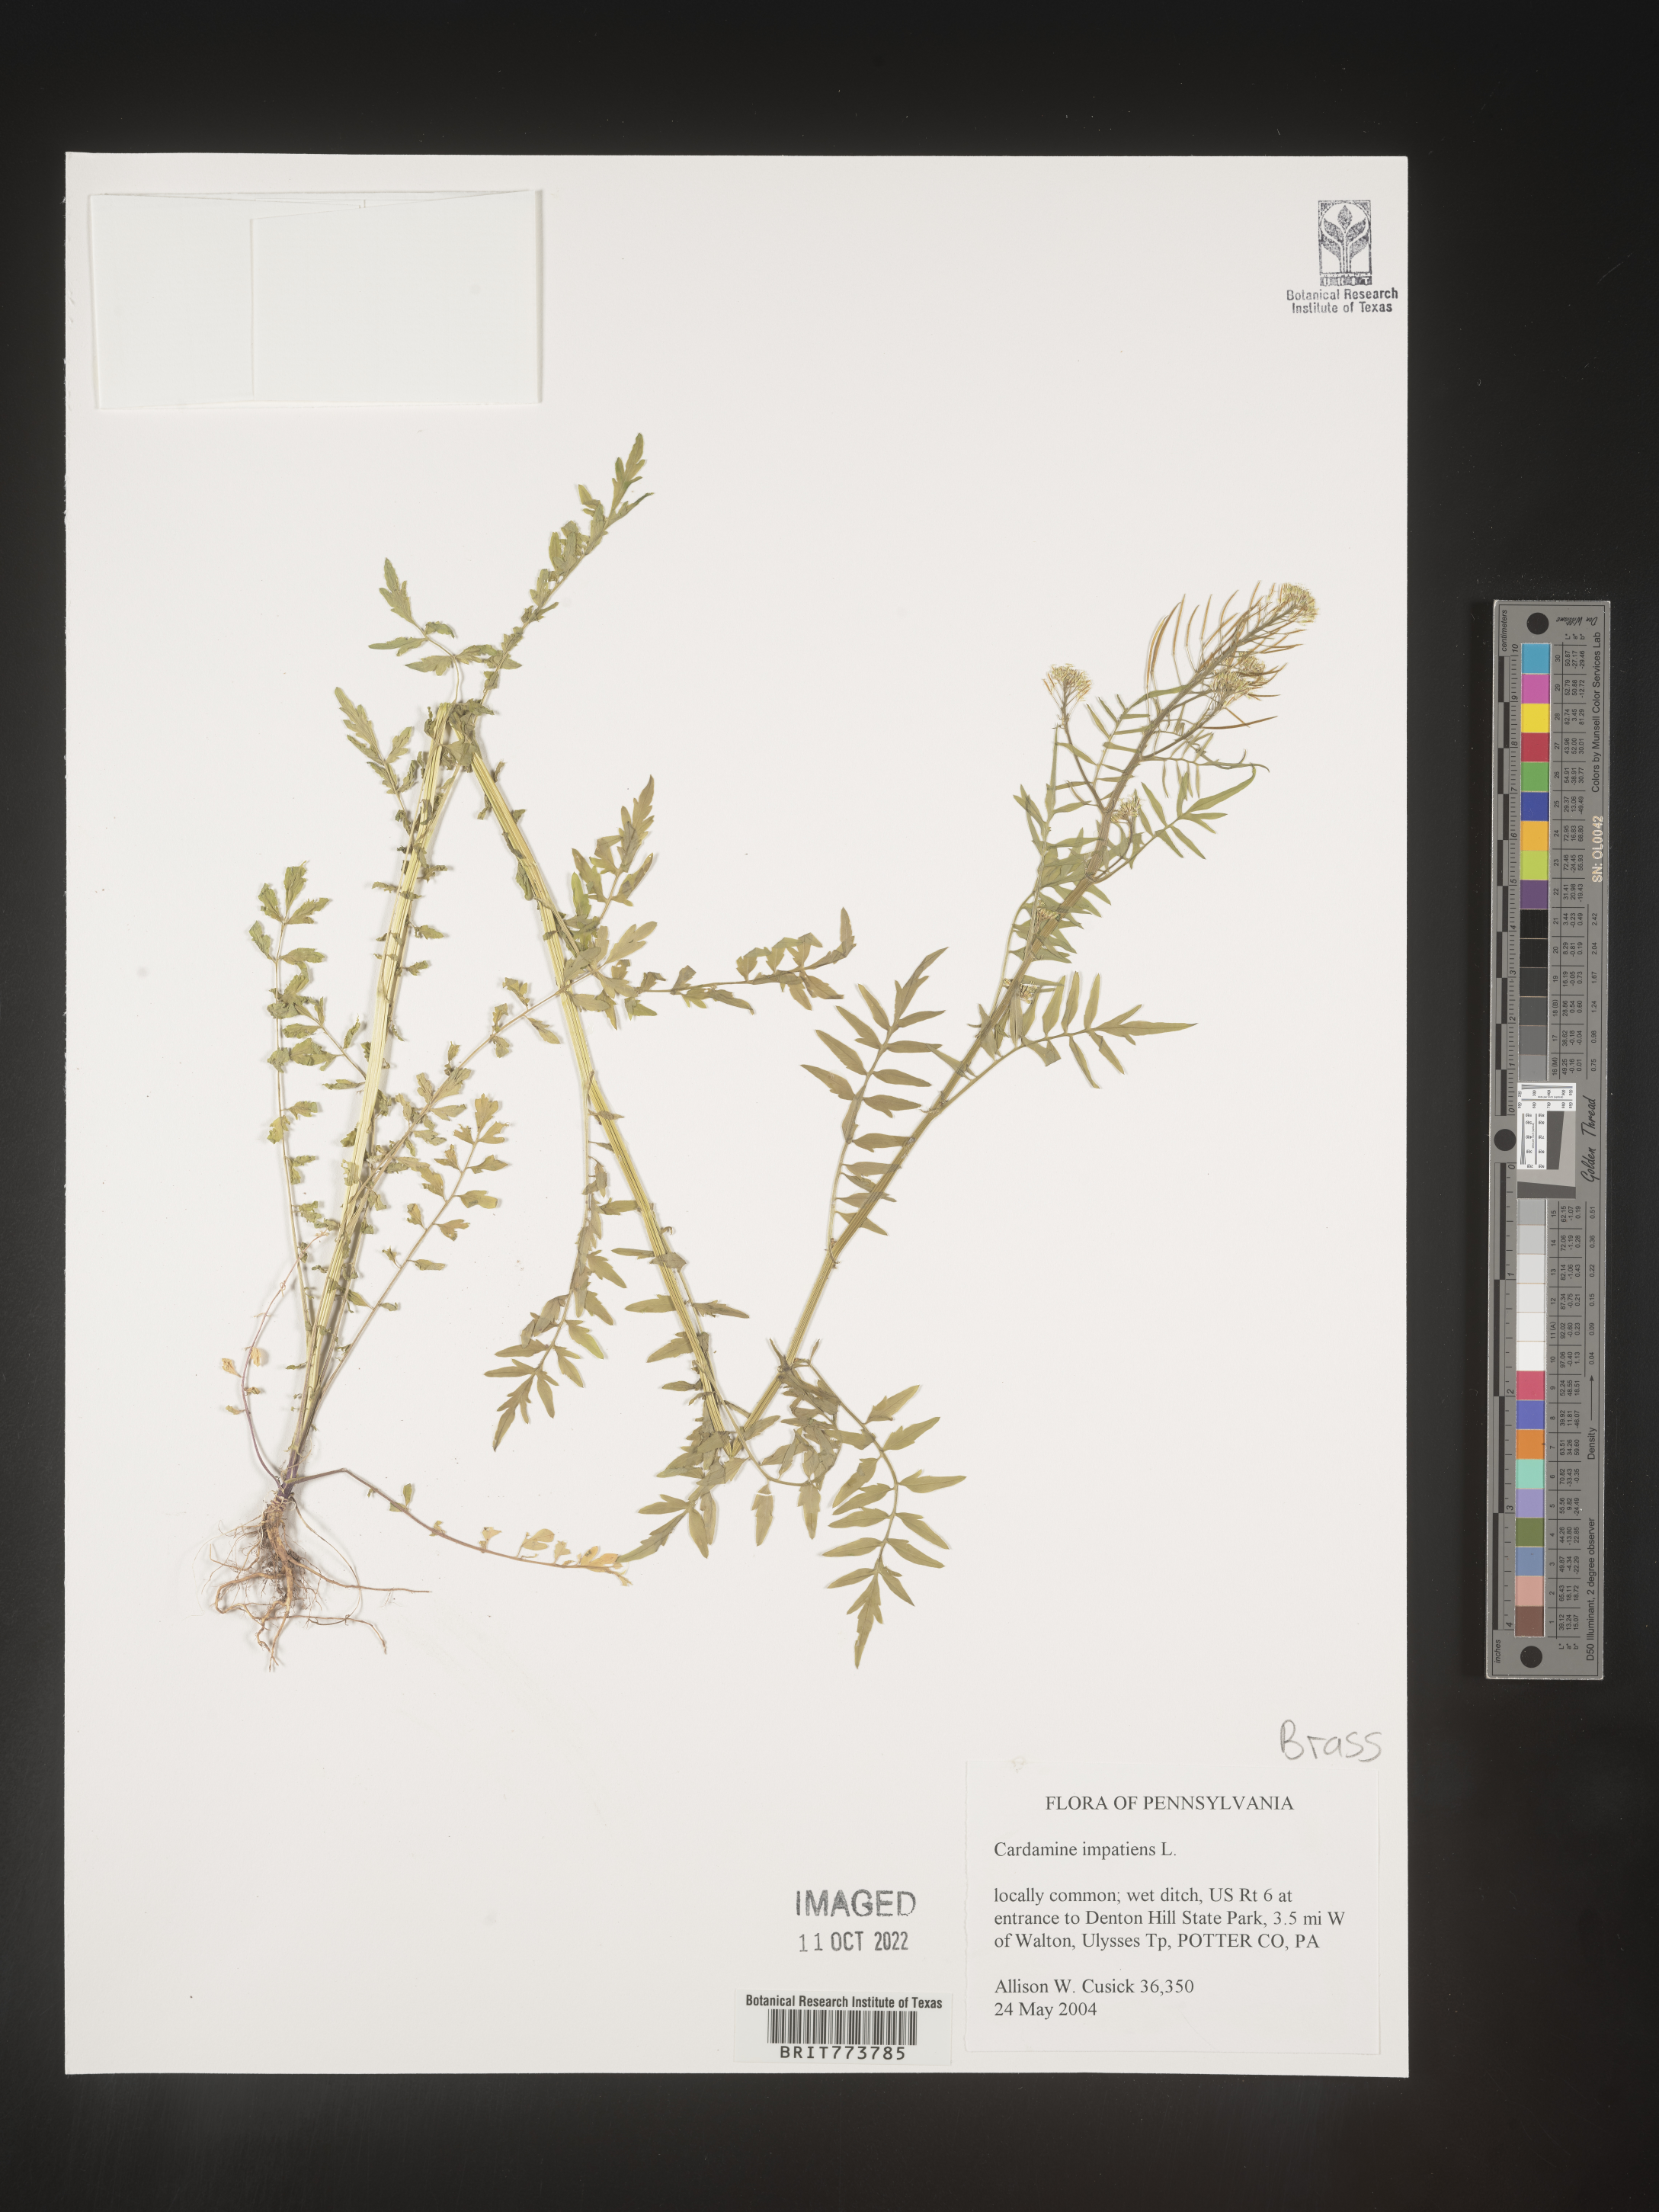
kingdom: Plantae
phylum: Tracheophyta
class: Magnoliopsida
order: Brassicales
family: Brassicaceae
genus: Cardamine
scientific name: Cardamine impatiens
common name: Narrow-leaved bitter-cress
